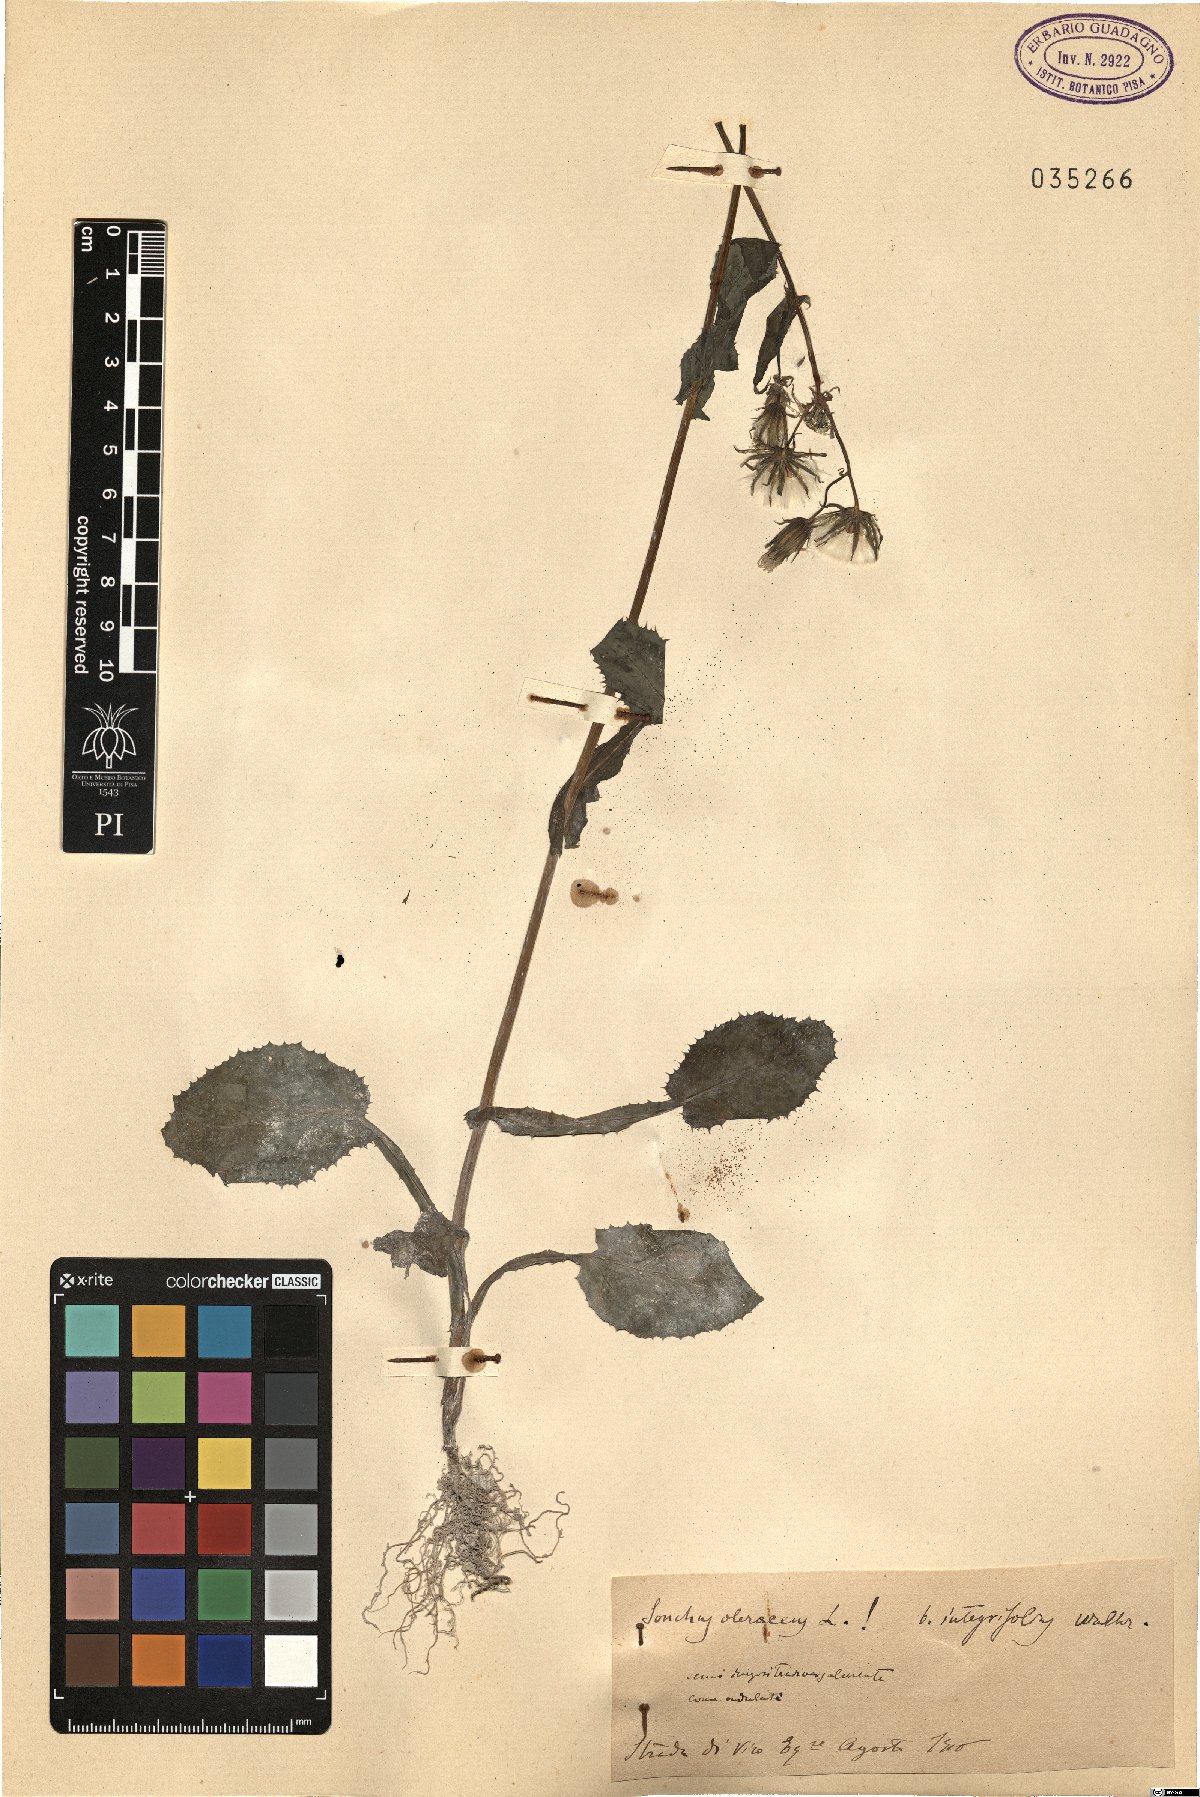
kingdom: Plantae
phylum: Tracheophyta
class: Magnoliopsida
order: Asterales
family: Asteraceae
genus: Sonchus
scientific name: Sonchus oleraceus
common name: Common sowthistle
